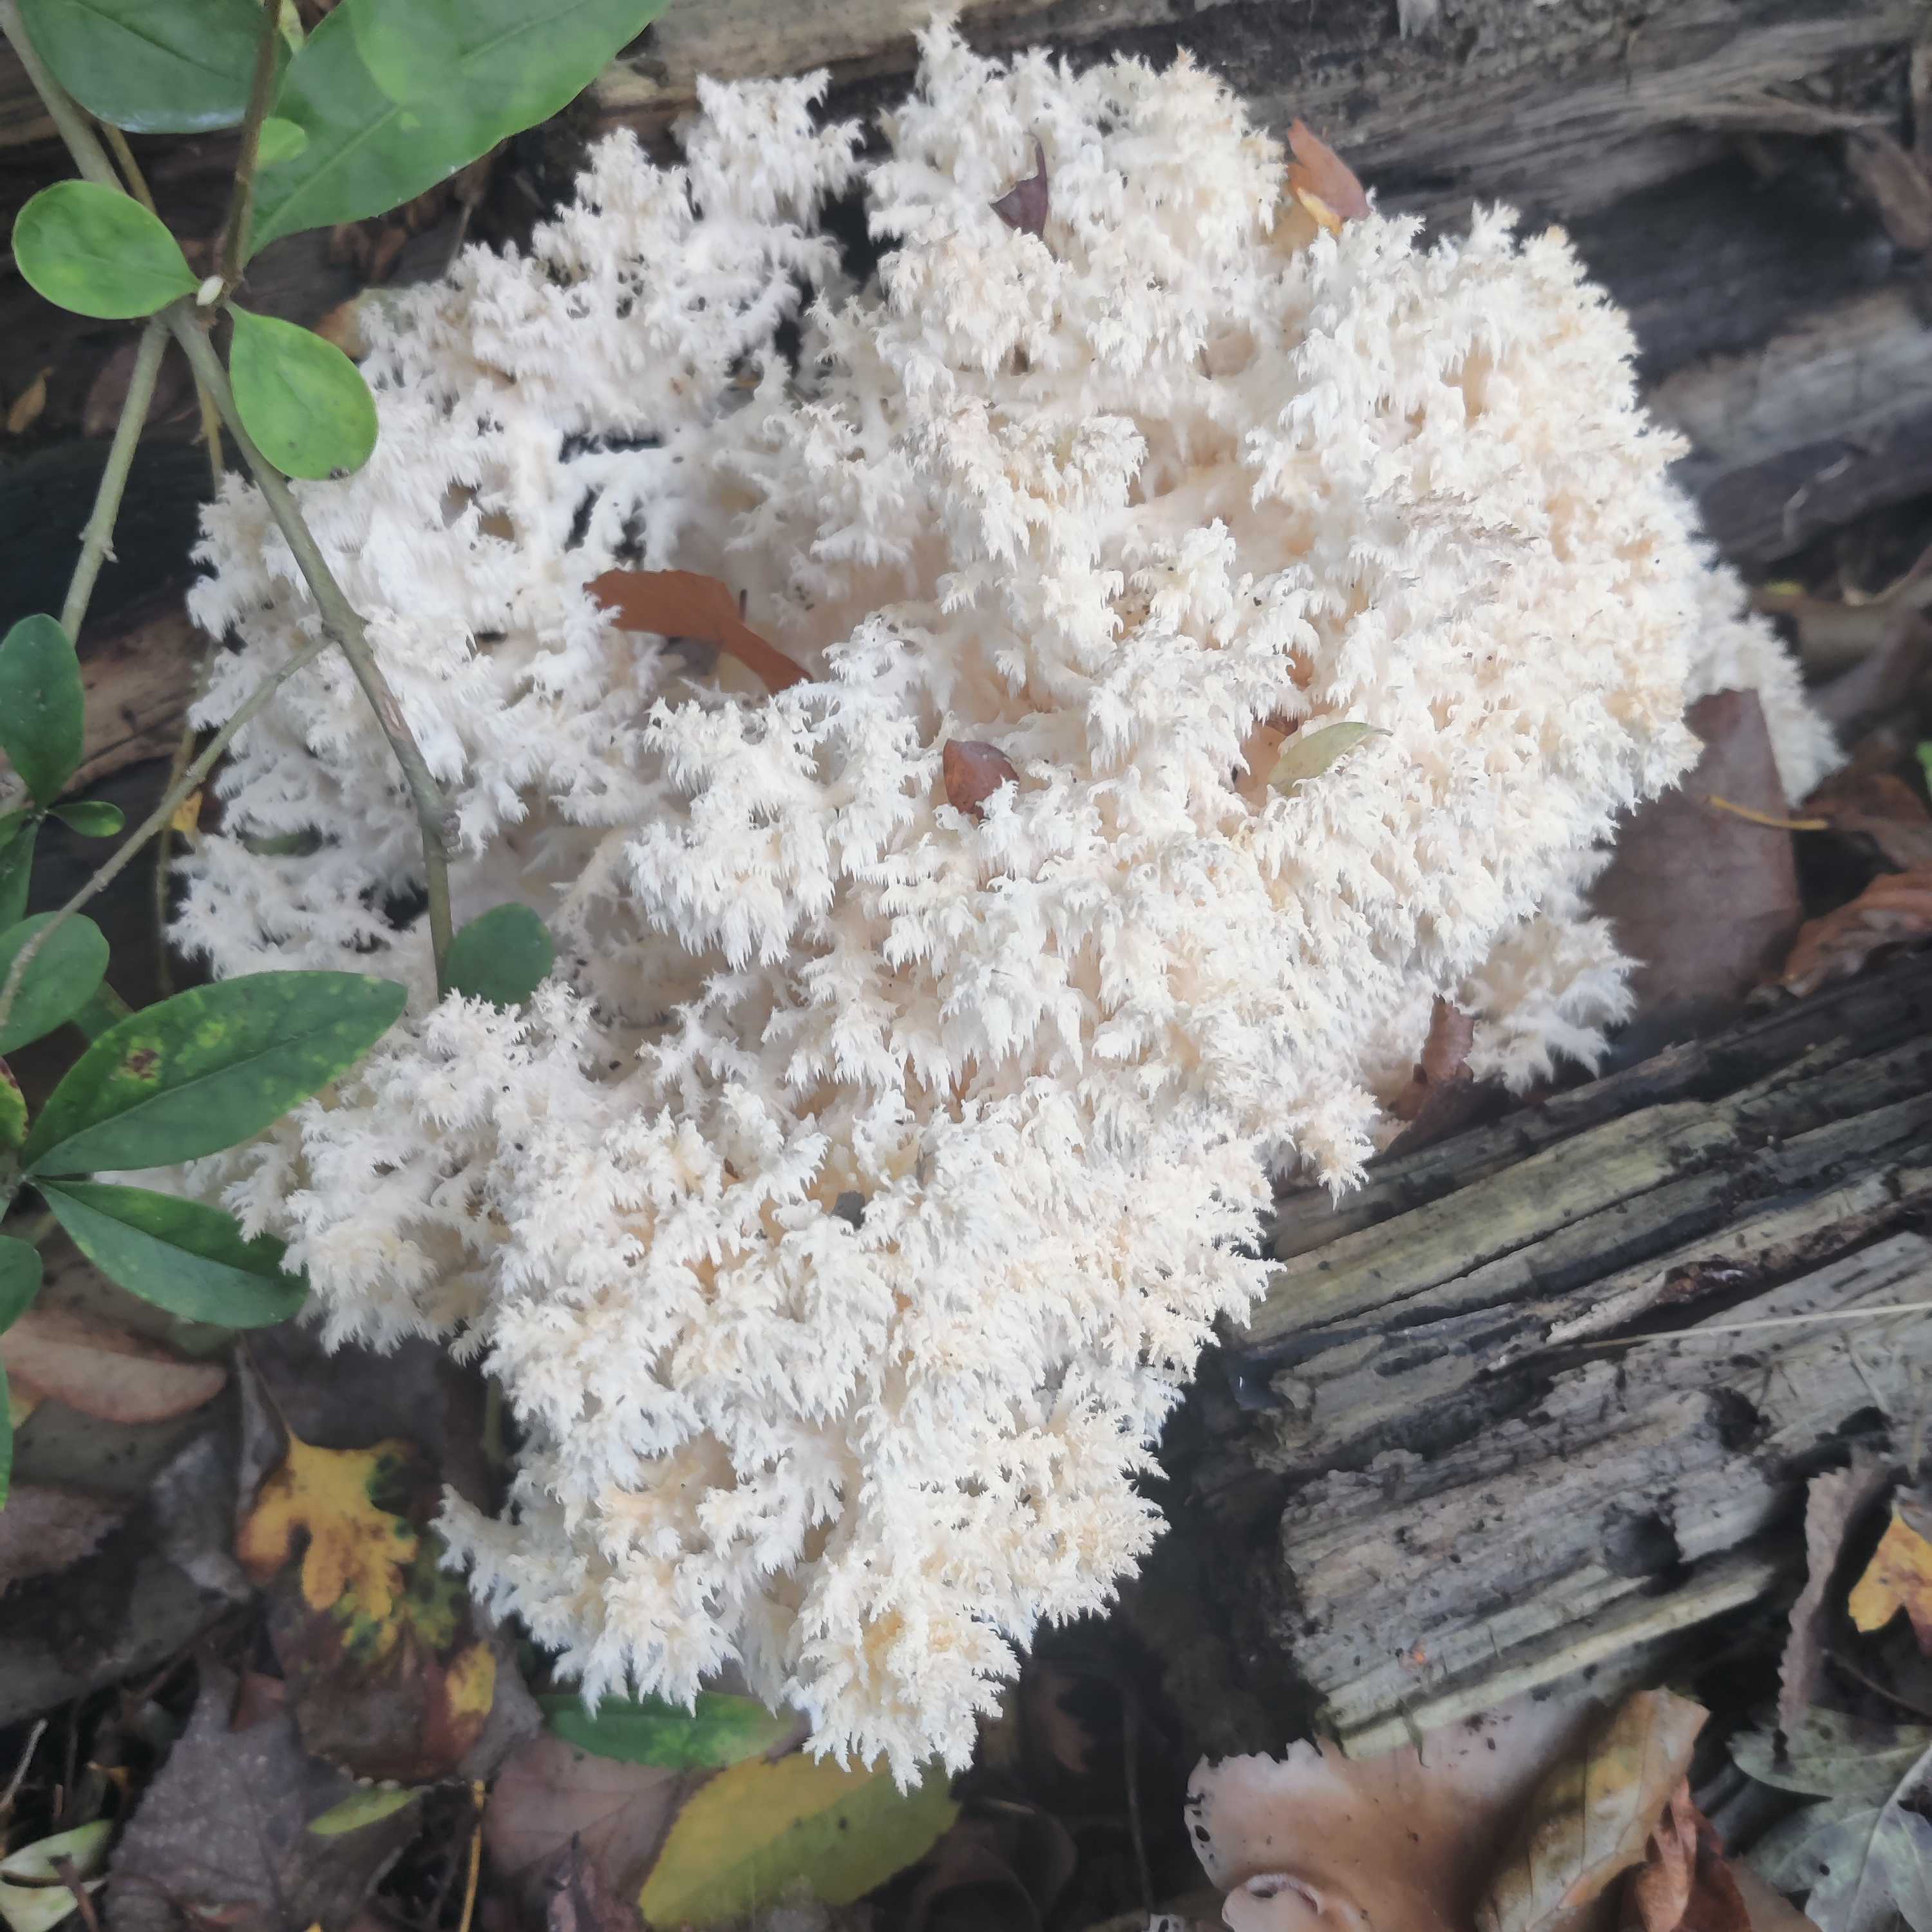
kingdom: Fungi
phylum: Basidiomycota
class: Agaricomycetes
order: Russulales
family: Hericiaceae
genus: Hericium
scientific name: Hericium coralloides
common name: koralpigsvamp
